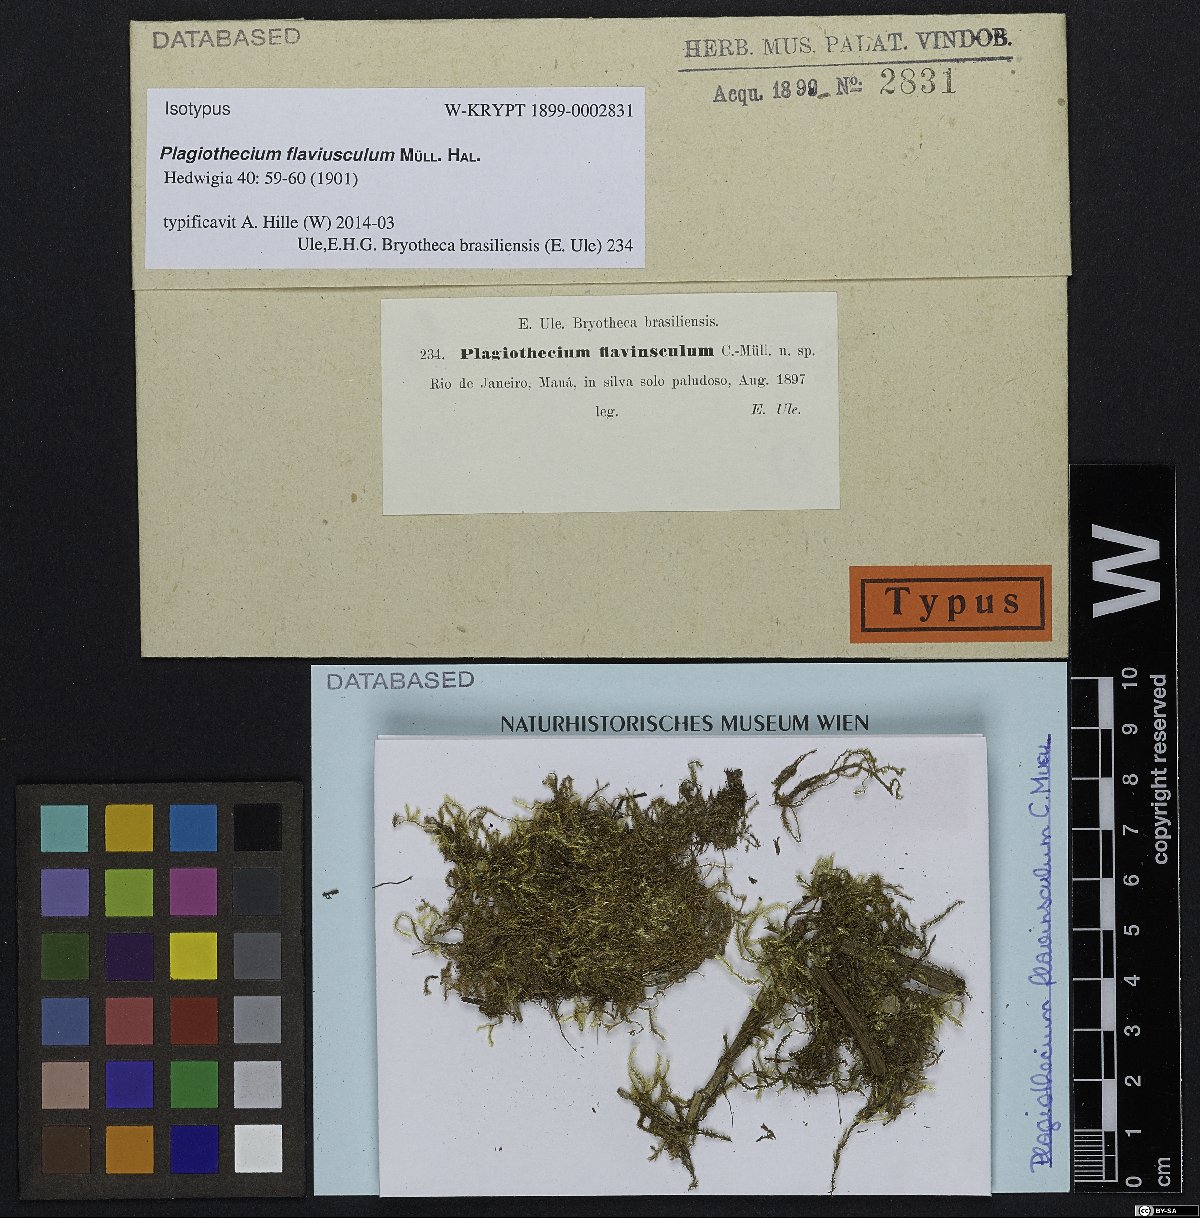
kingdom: Plantae
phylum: Bryophyta
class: Bryopsida
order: Hypnales
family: Pylaisiadelphaceae
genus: Isopterygium
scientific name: Isopterygium tenerum
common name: Isopterygium moss
